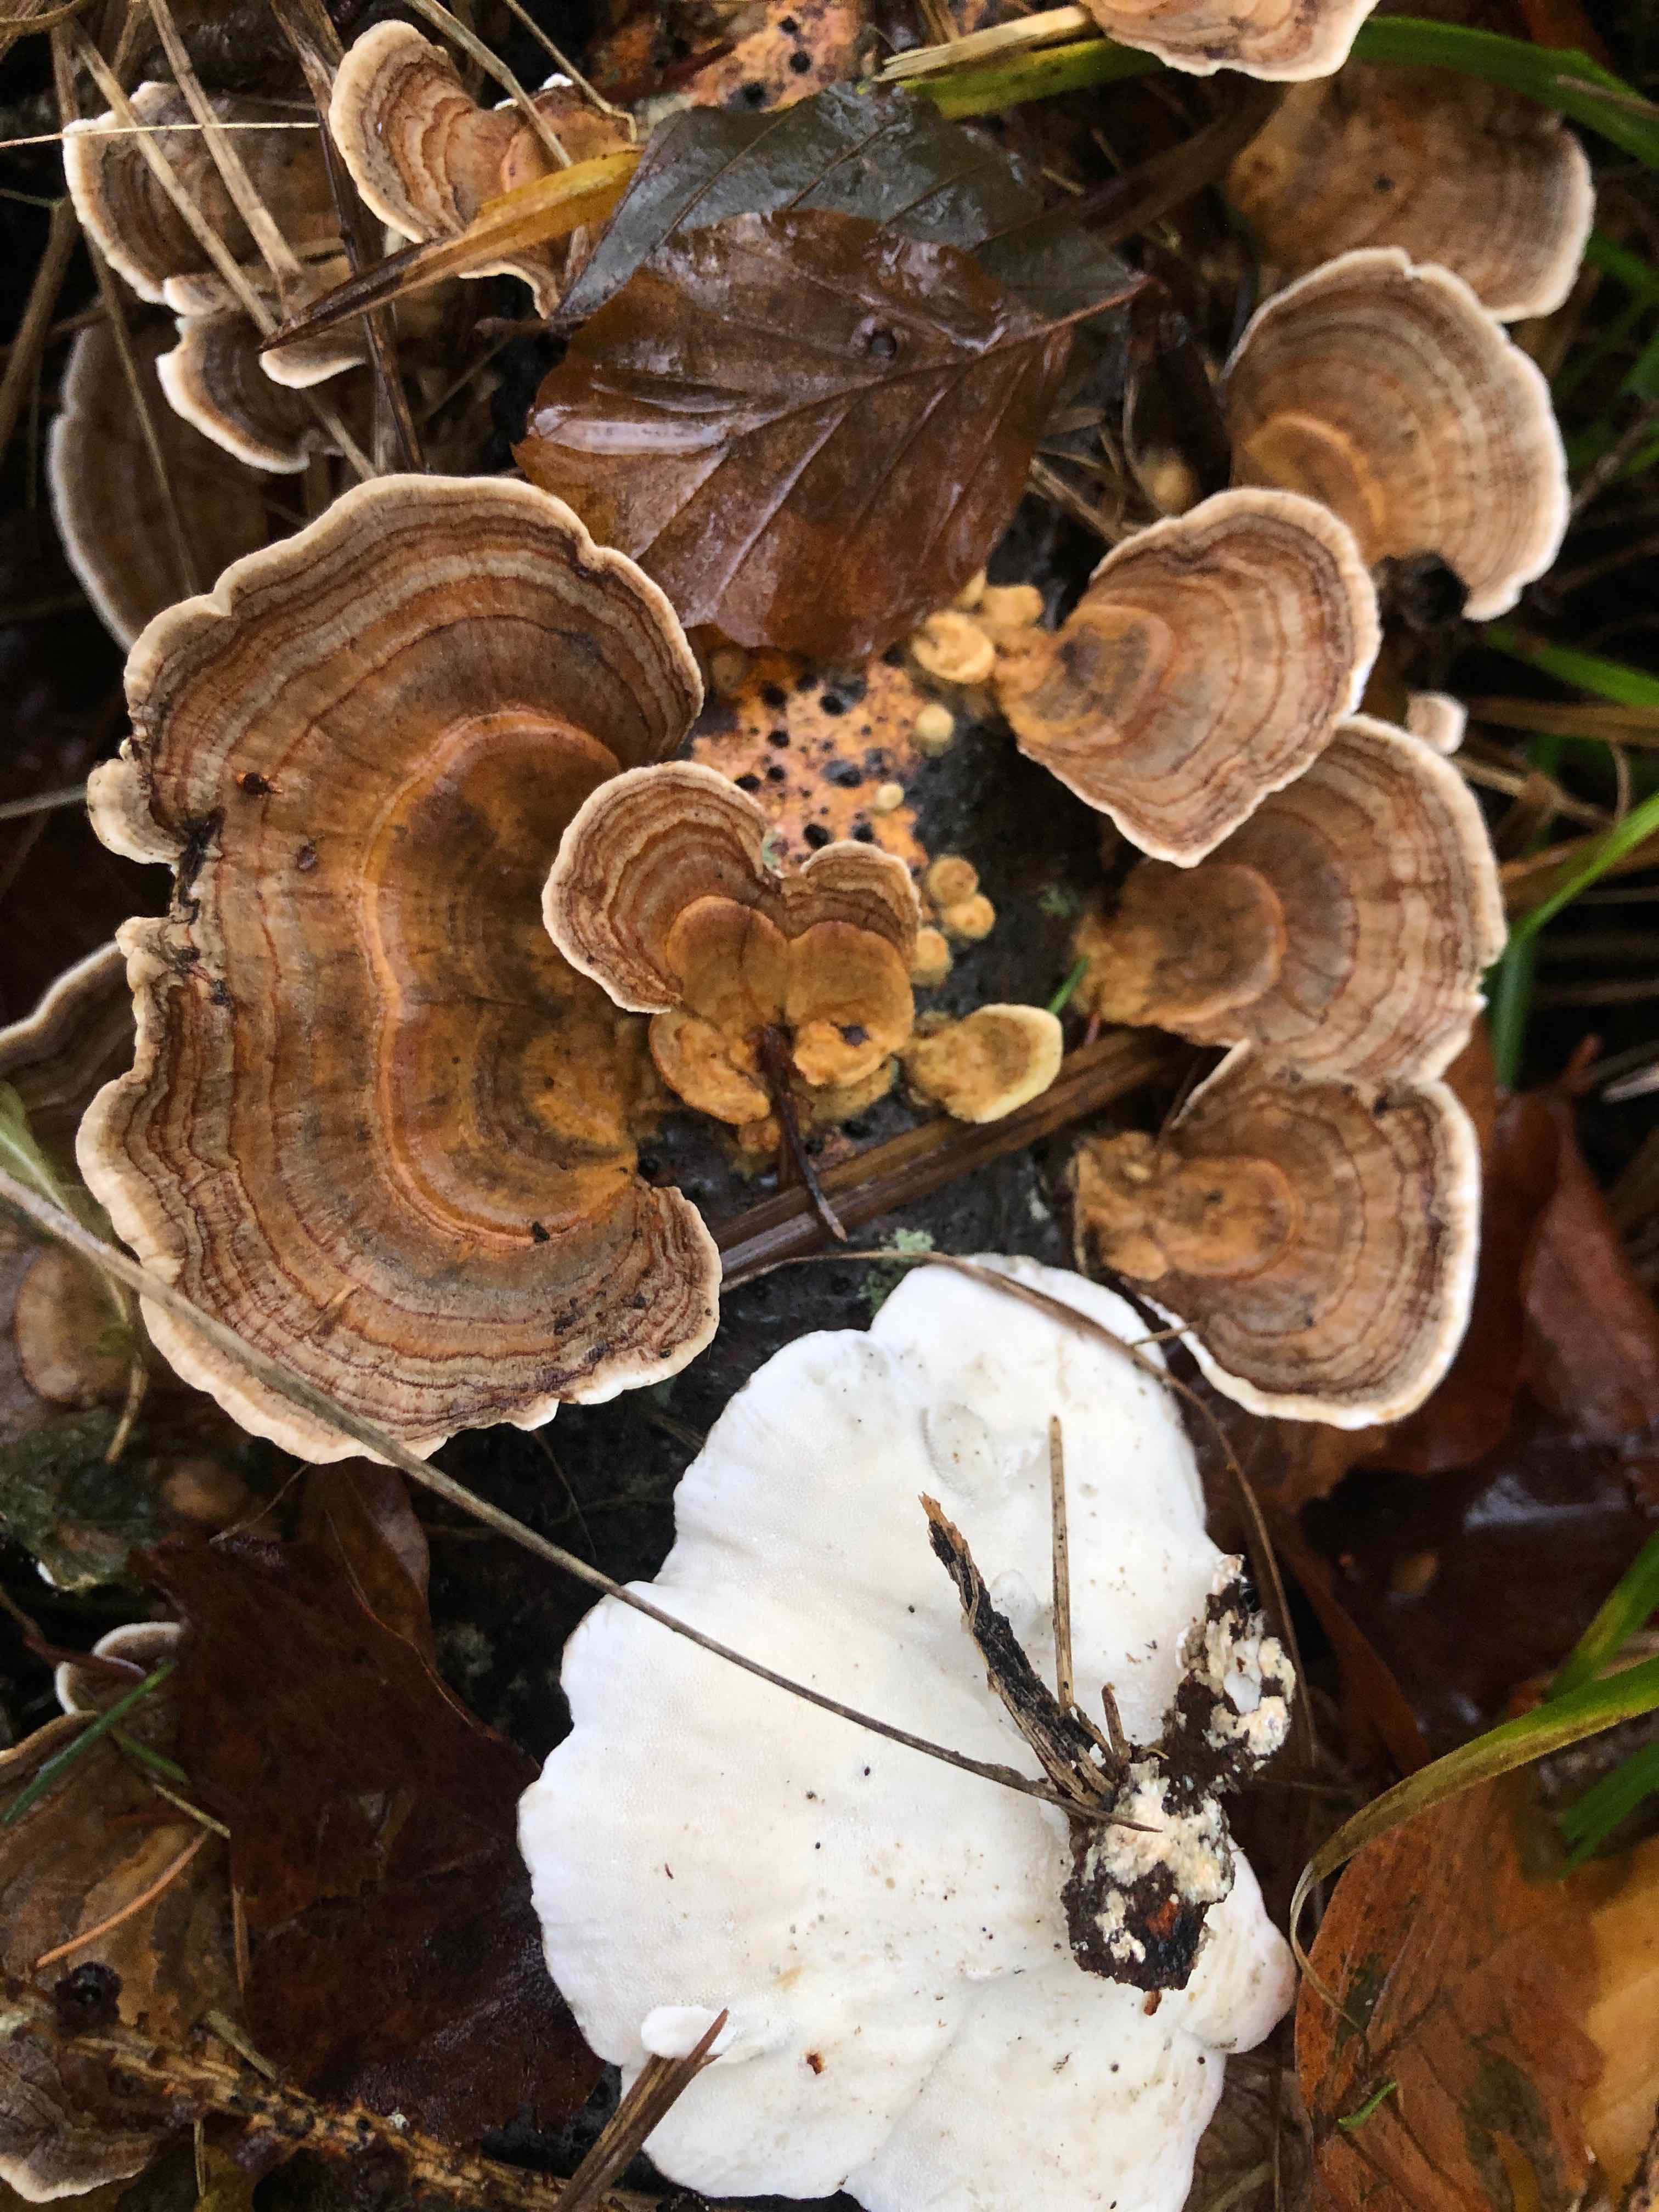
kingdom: Fungi
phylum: Basidiomycota
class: Agaricomycetes
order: Polyporales
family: Polyporaceae
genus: Trametes
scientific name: Trametes versicolor
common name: broget læderporesvamp
